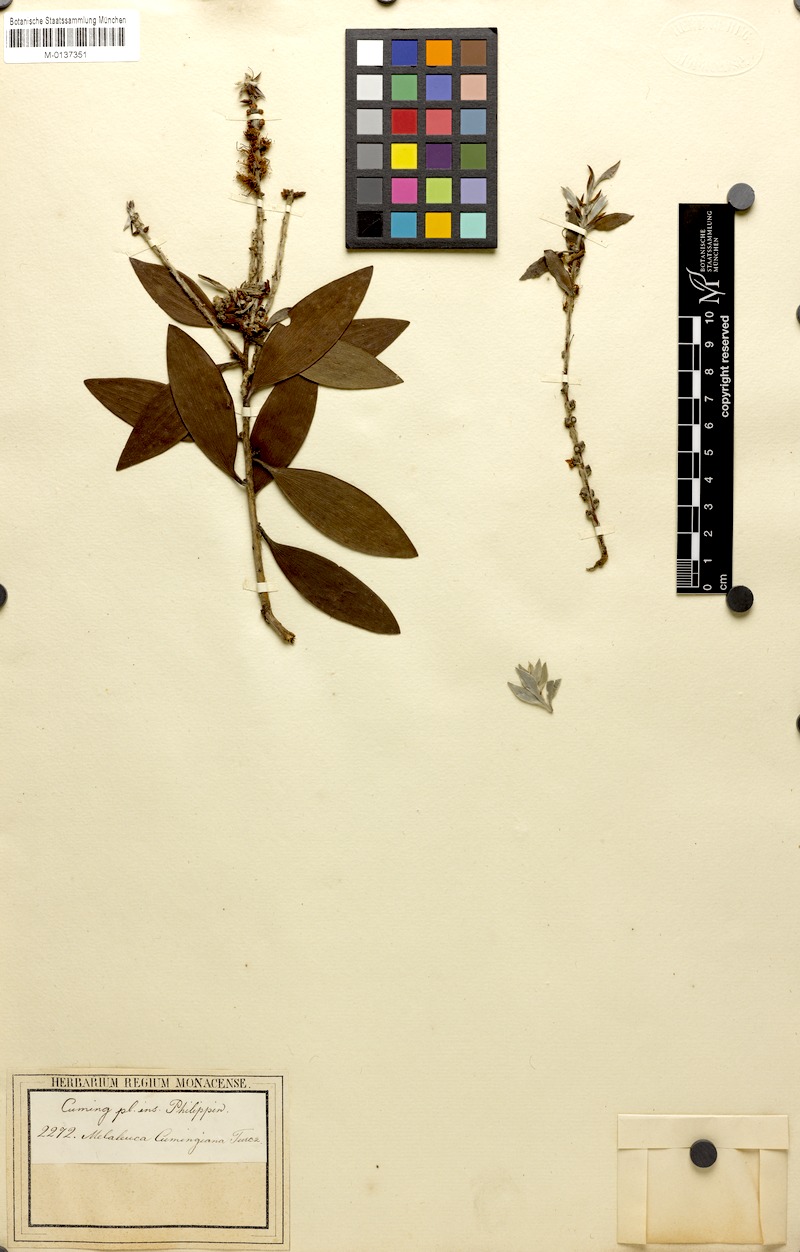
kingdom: Plantae
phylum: Tracheophyta
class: Magnoliopsida
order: Myrtales
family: Myrtaceae
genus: Melaleuca
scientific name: Melaleuca cajuputi
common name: Cajuput
